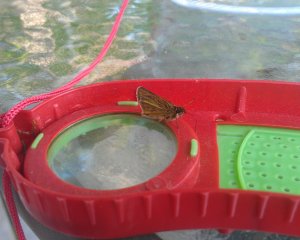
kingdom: Animalia
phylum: Arthropoda
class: Insecta
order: Lepidoptera
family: Hesperiidae
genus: Thymelicus
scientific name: Thymelicus lineola
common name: European Skipper
